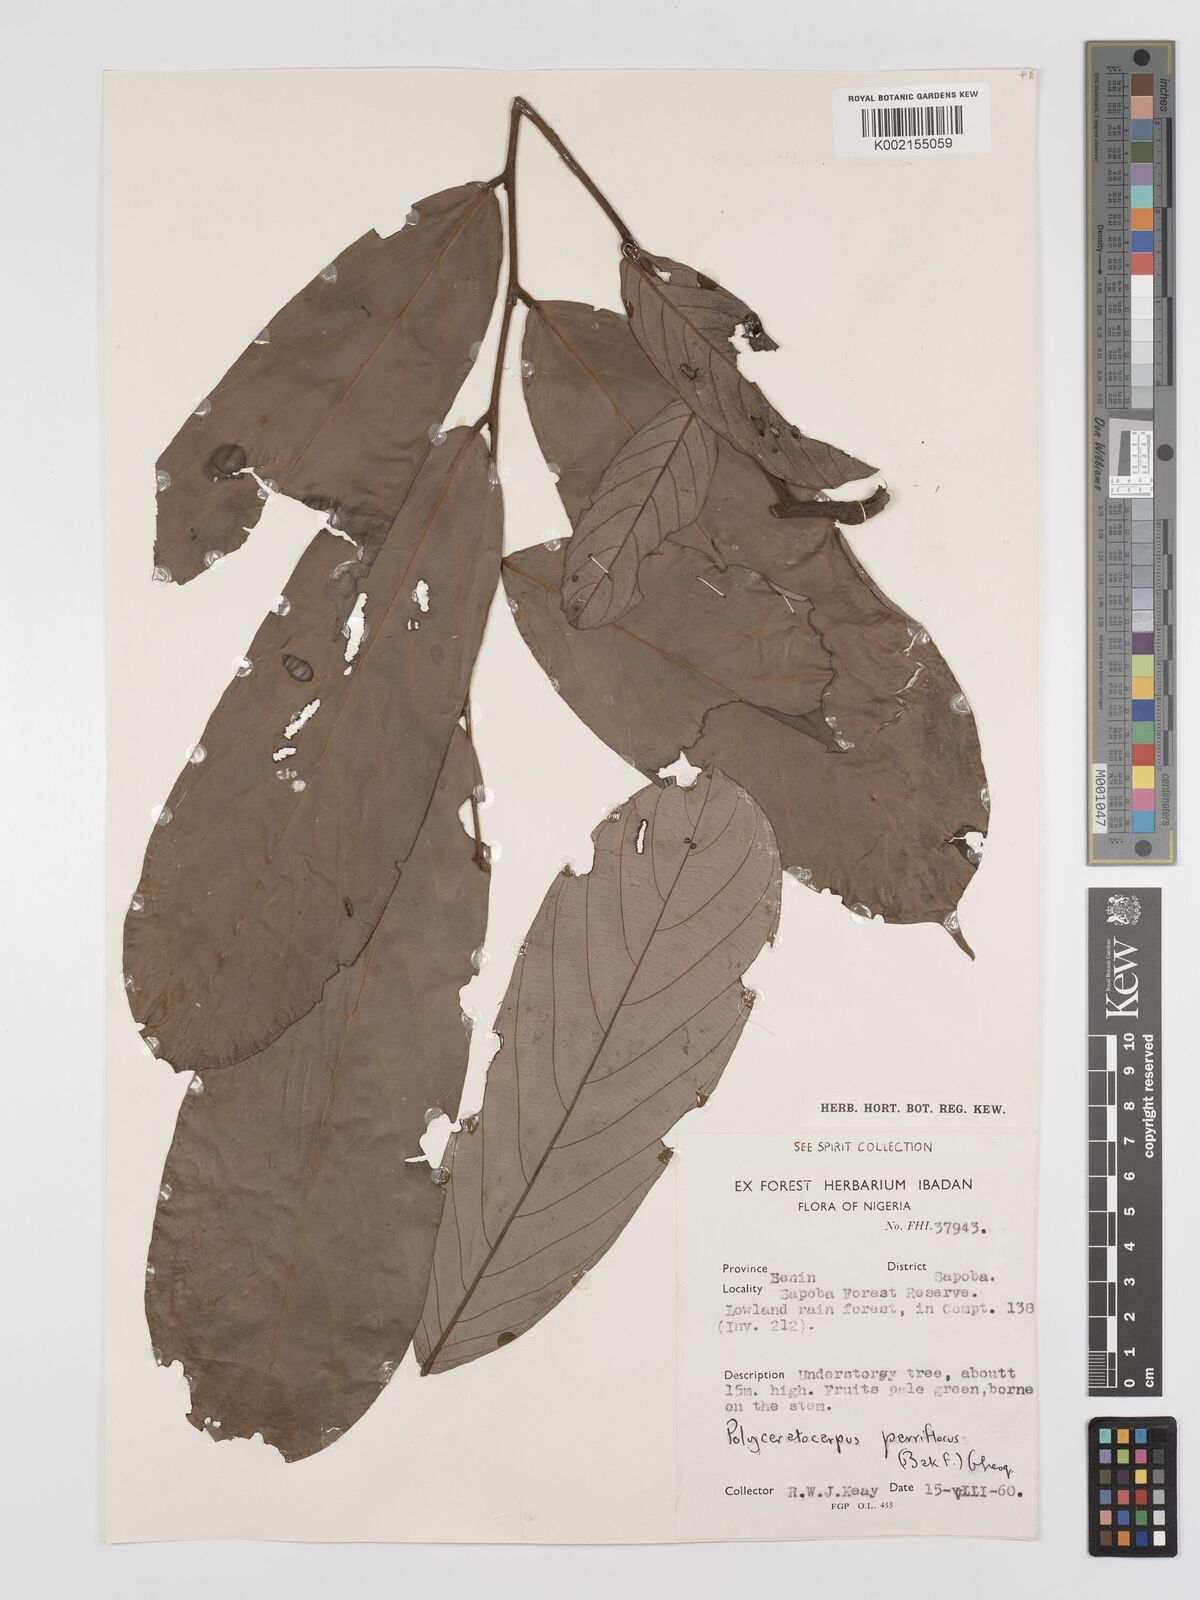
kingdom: Plantae
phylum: Tracheophyta
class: Magnoliopsida
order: Magnoliales
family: Annonaceae
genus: Polyceratocarpus
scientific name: Polyceratocarpus parviflorus
